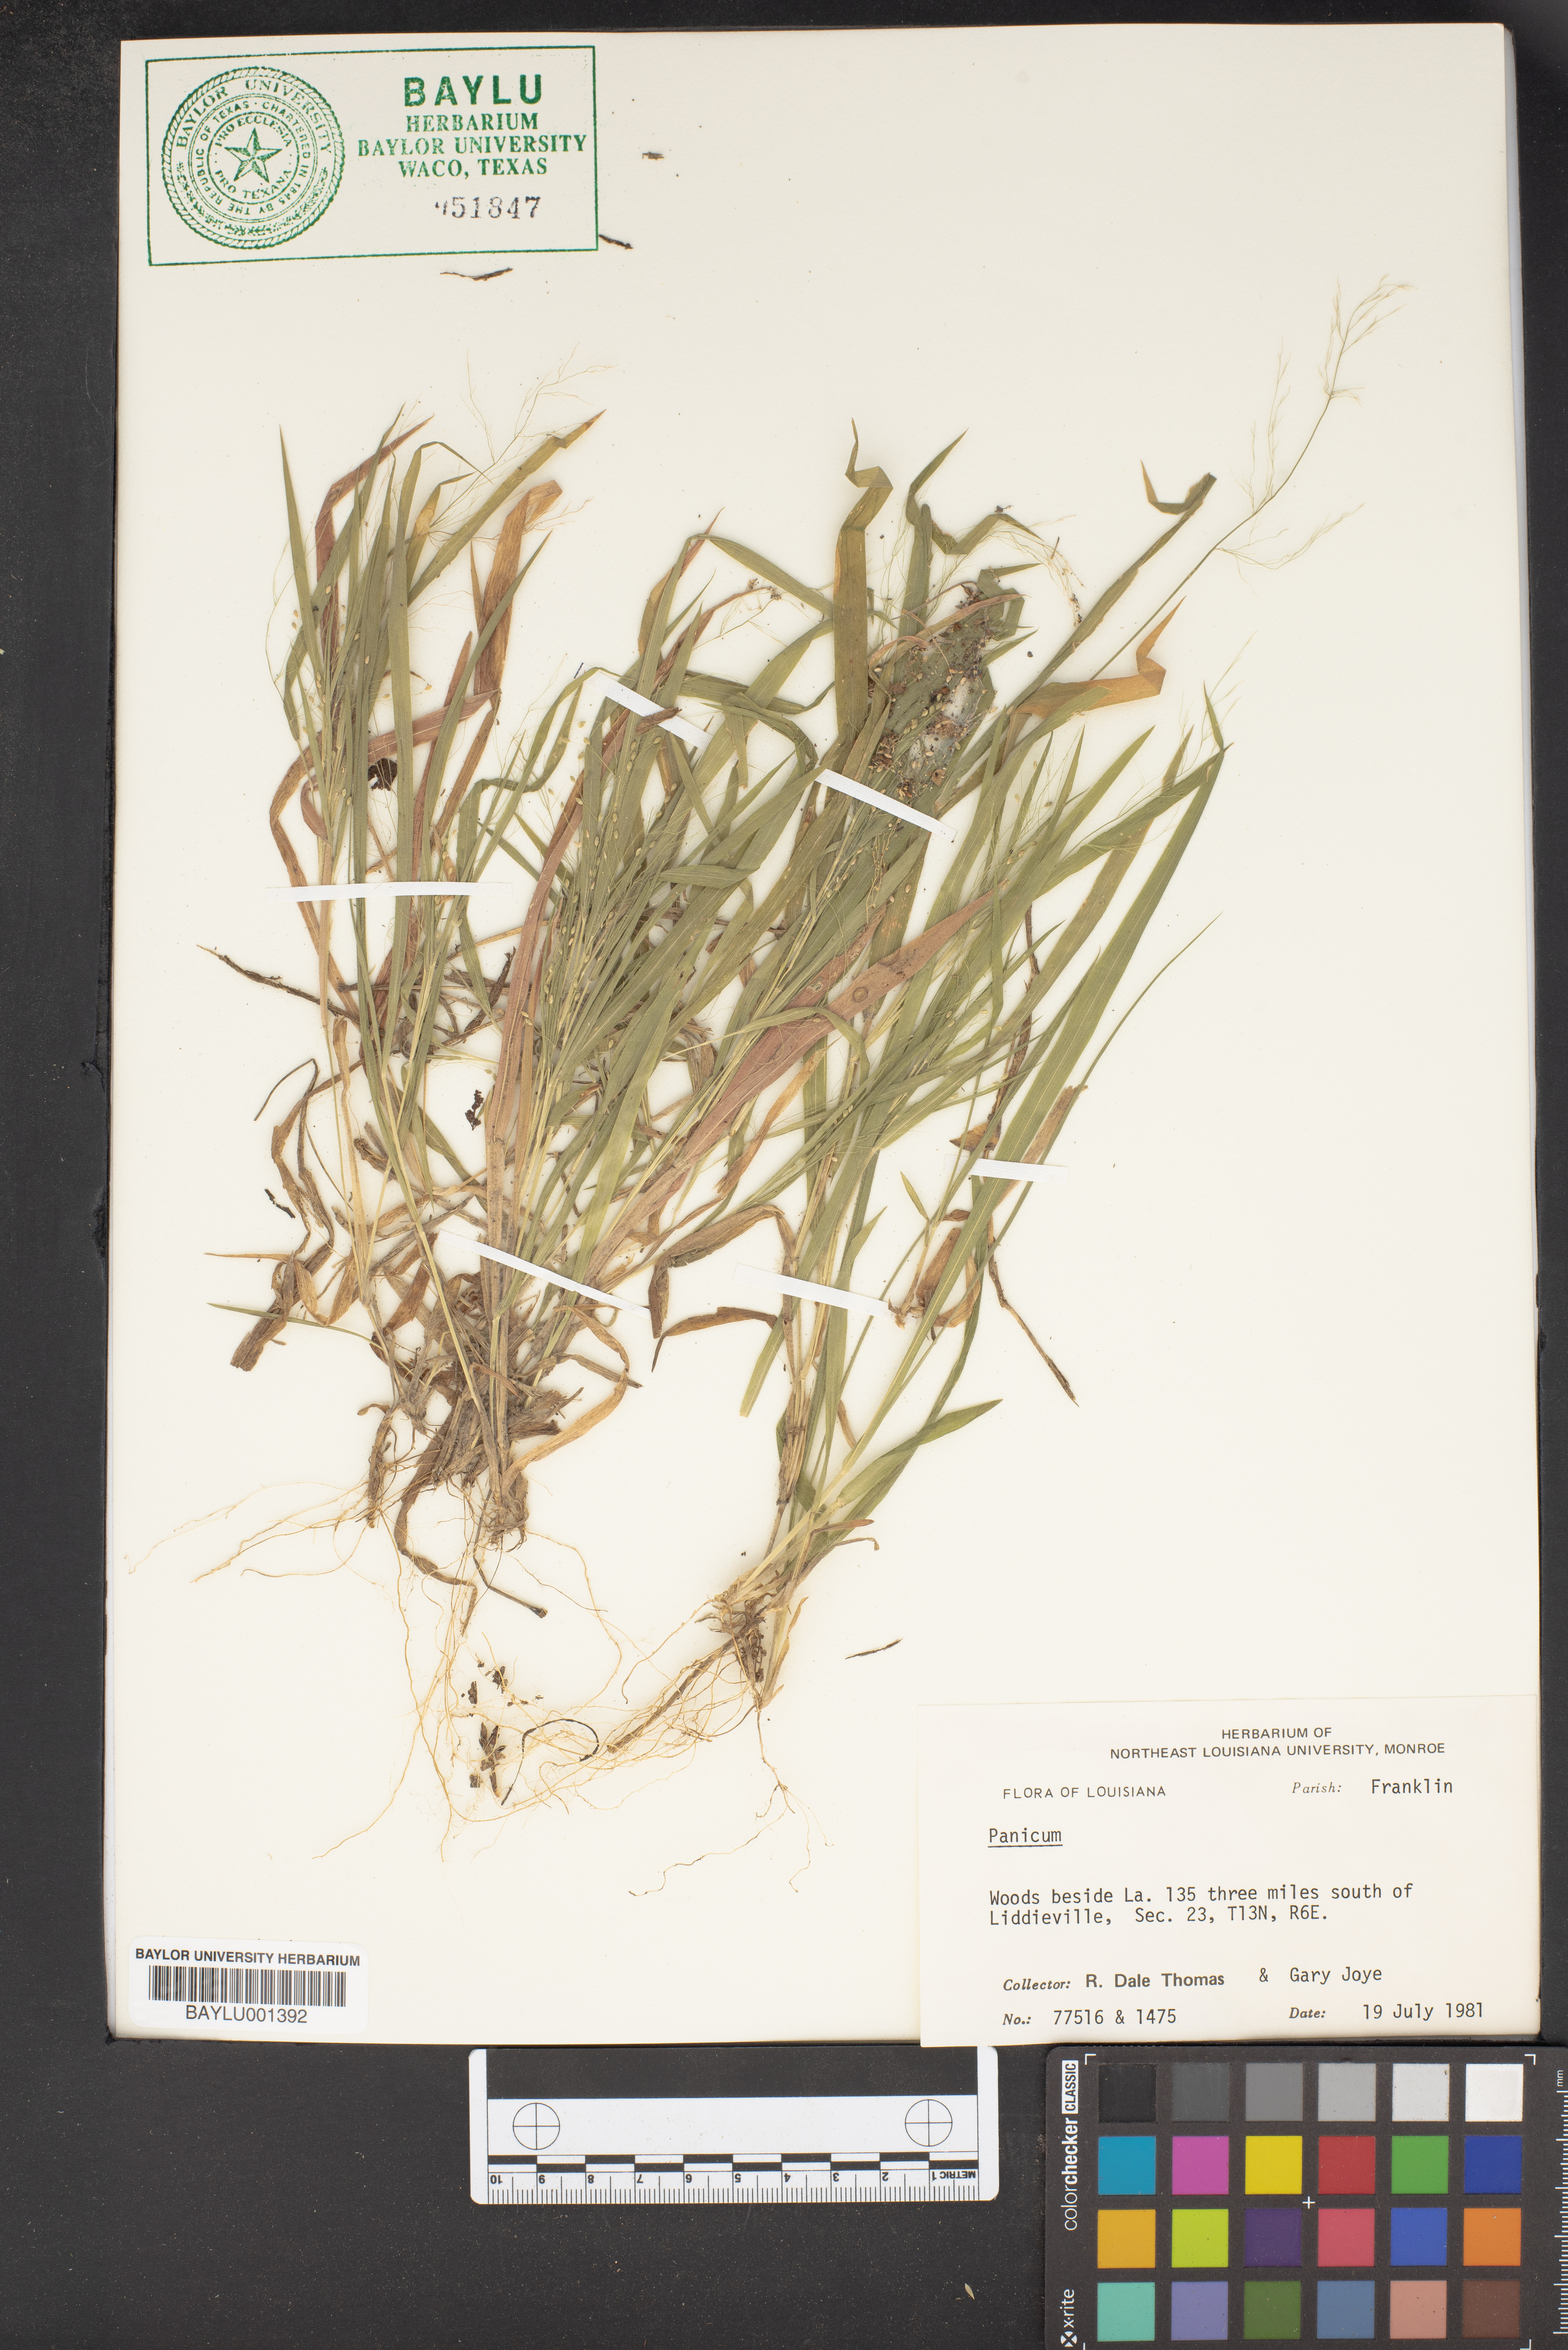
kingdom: Plantae
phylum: Tracheophyta
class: Liliopsida
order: Poales
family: Poaceae
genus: Panicum
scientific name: Panicum
